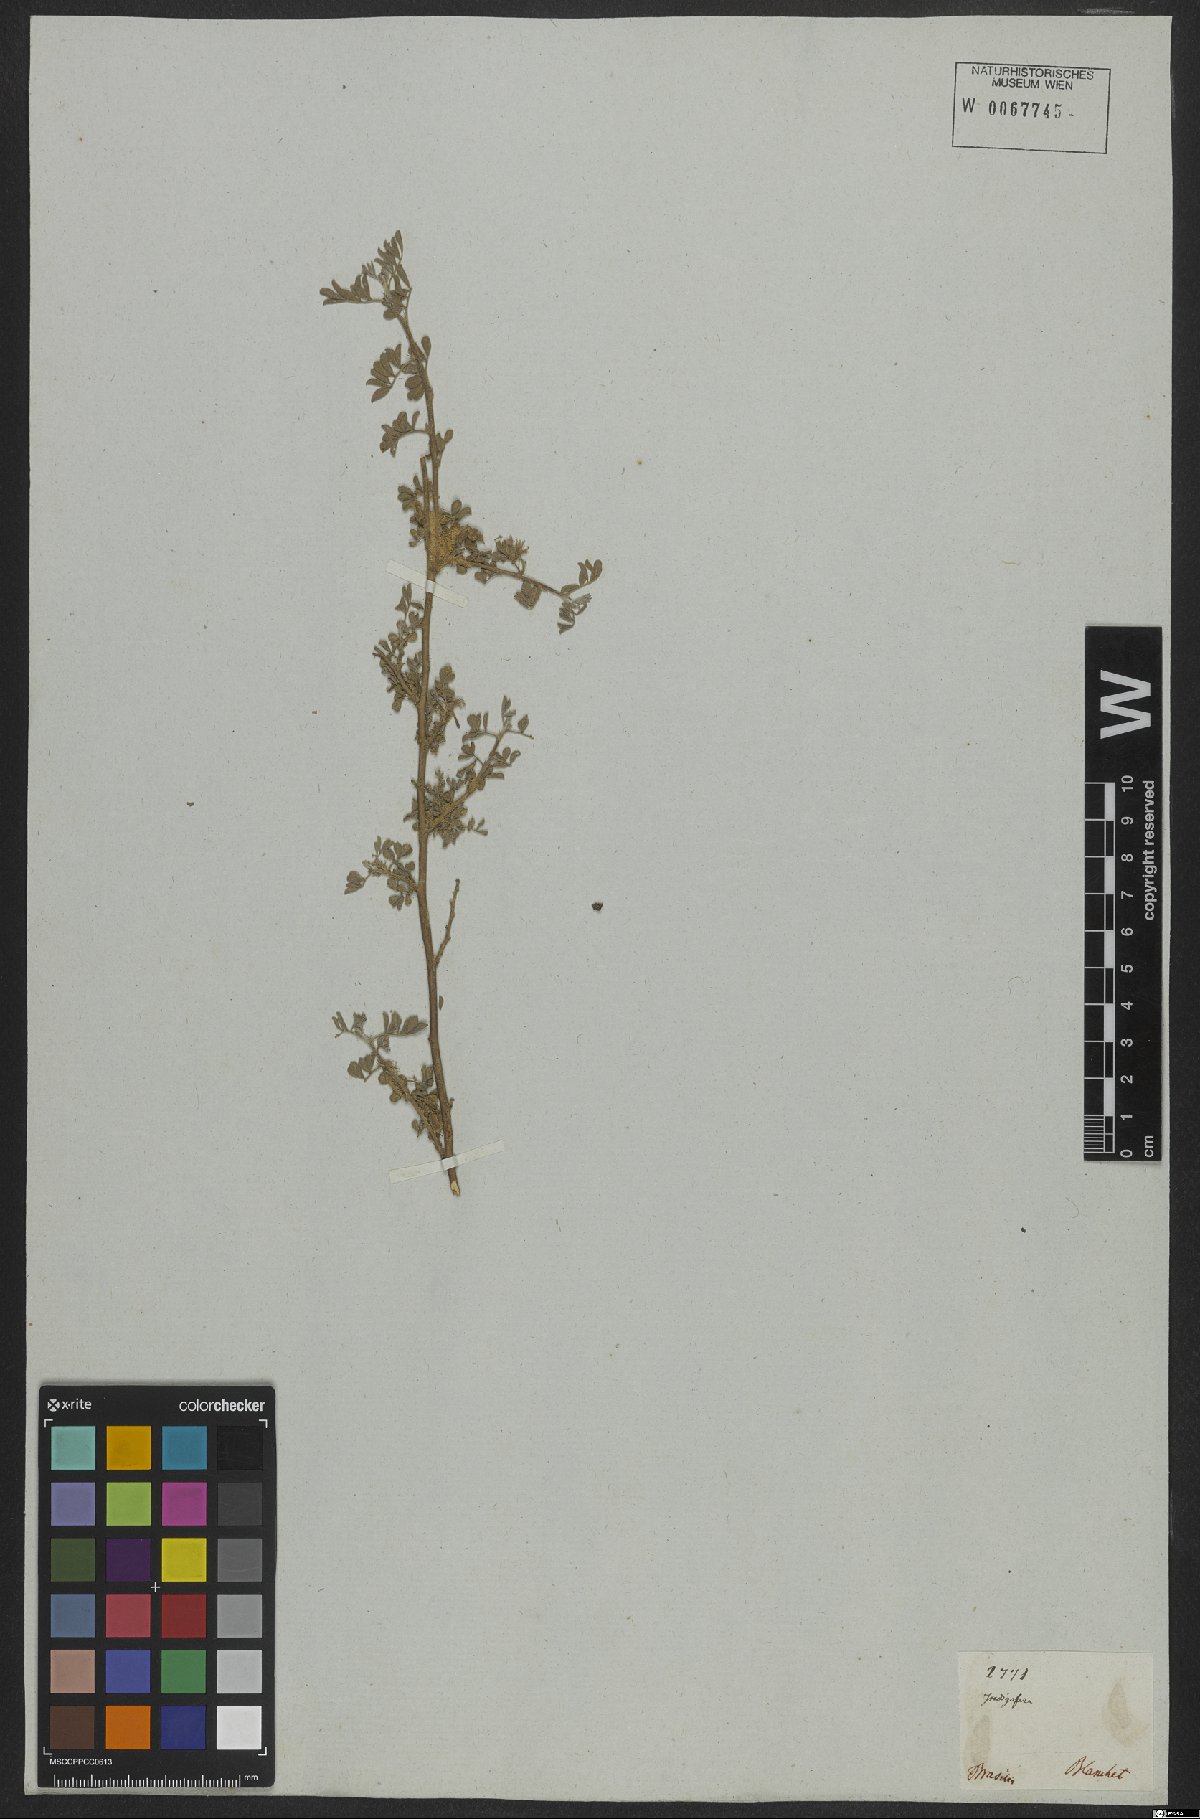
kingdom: Plantae
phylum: Tracheophyta
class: Magnoliopsida
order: Fabales
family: Fabaceae
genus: Indigofera
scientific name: Indigofera
